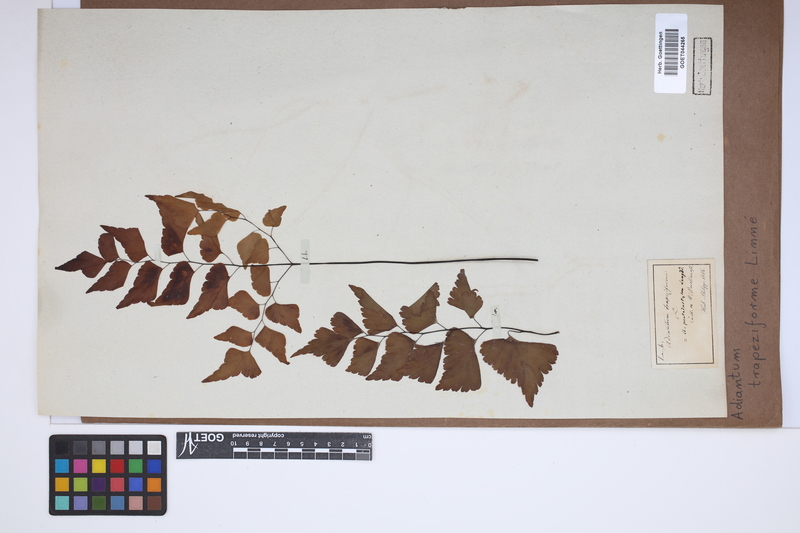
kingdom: Plantae
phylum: Tracheophyta
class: Polypodiopsida
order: Polypodiales
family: Pteridaceae
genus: Adiantum
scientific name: Adiantum trapeziforme
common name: Diamond maidenhair
